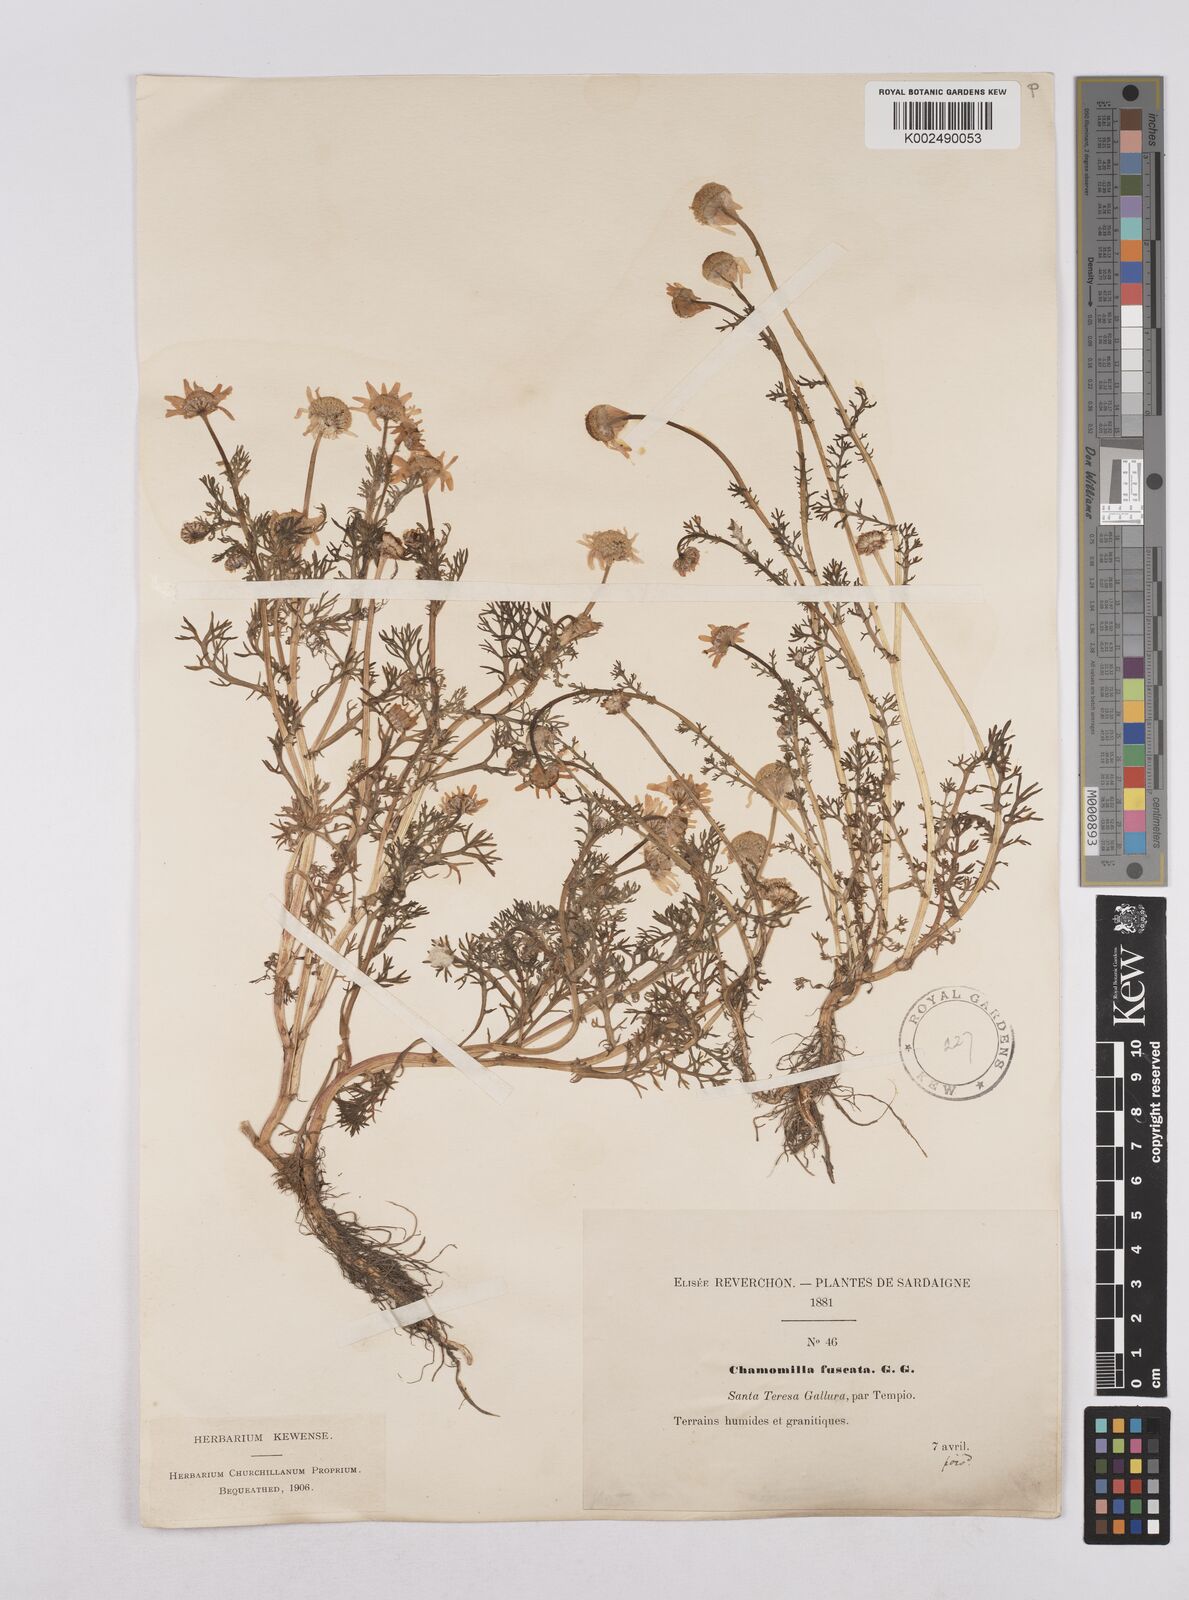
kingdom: Plantae
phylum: Tracheophyta
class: Magnoliopsida
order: Asterales
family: Asteraceae
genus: Chamaemelum
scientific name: Chamaemelum fuscatum
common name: Chamomile
